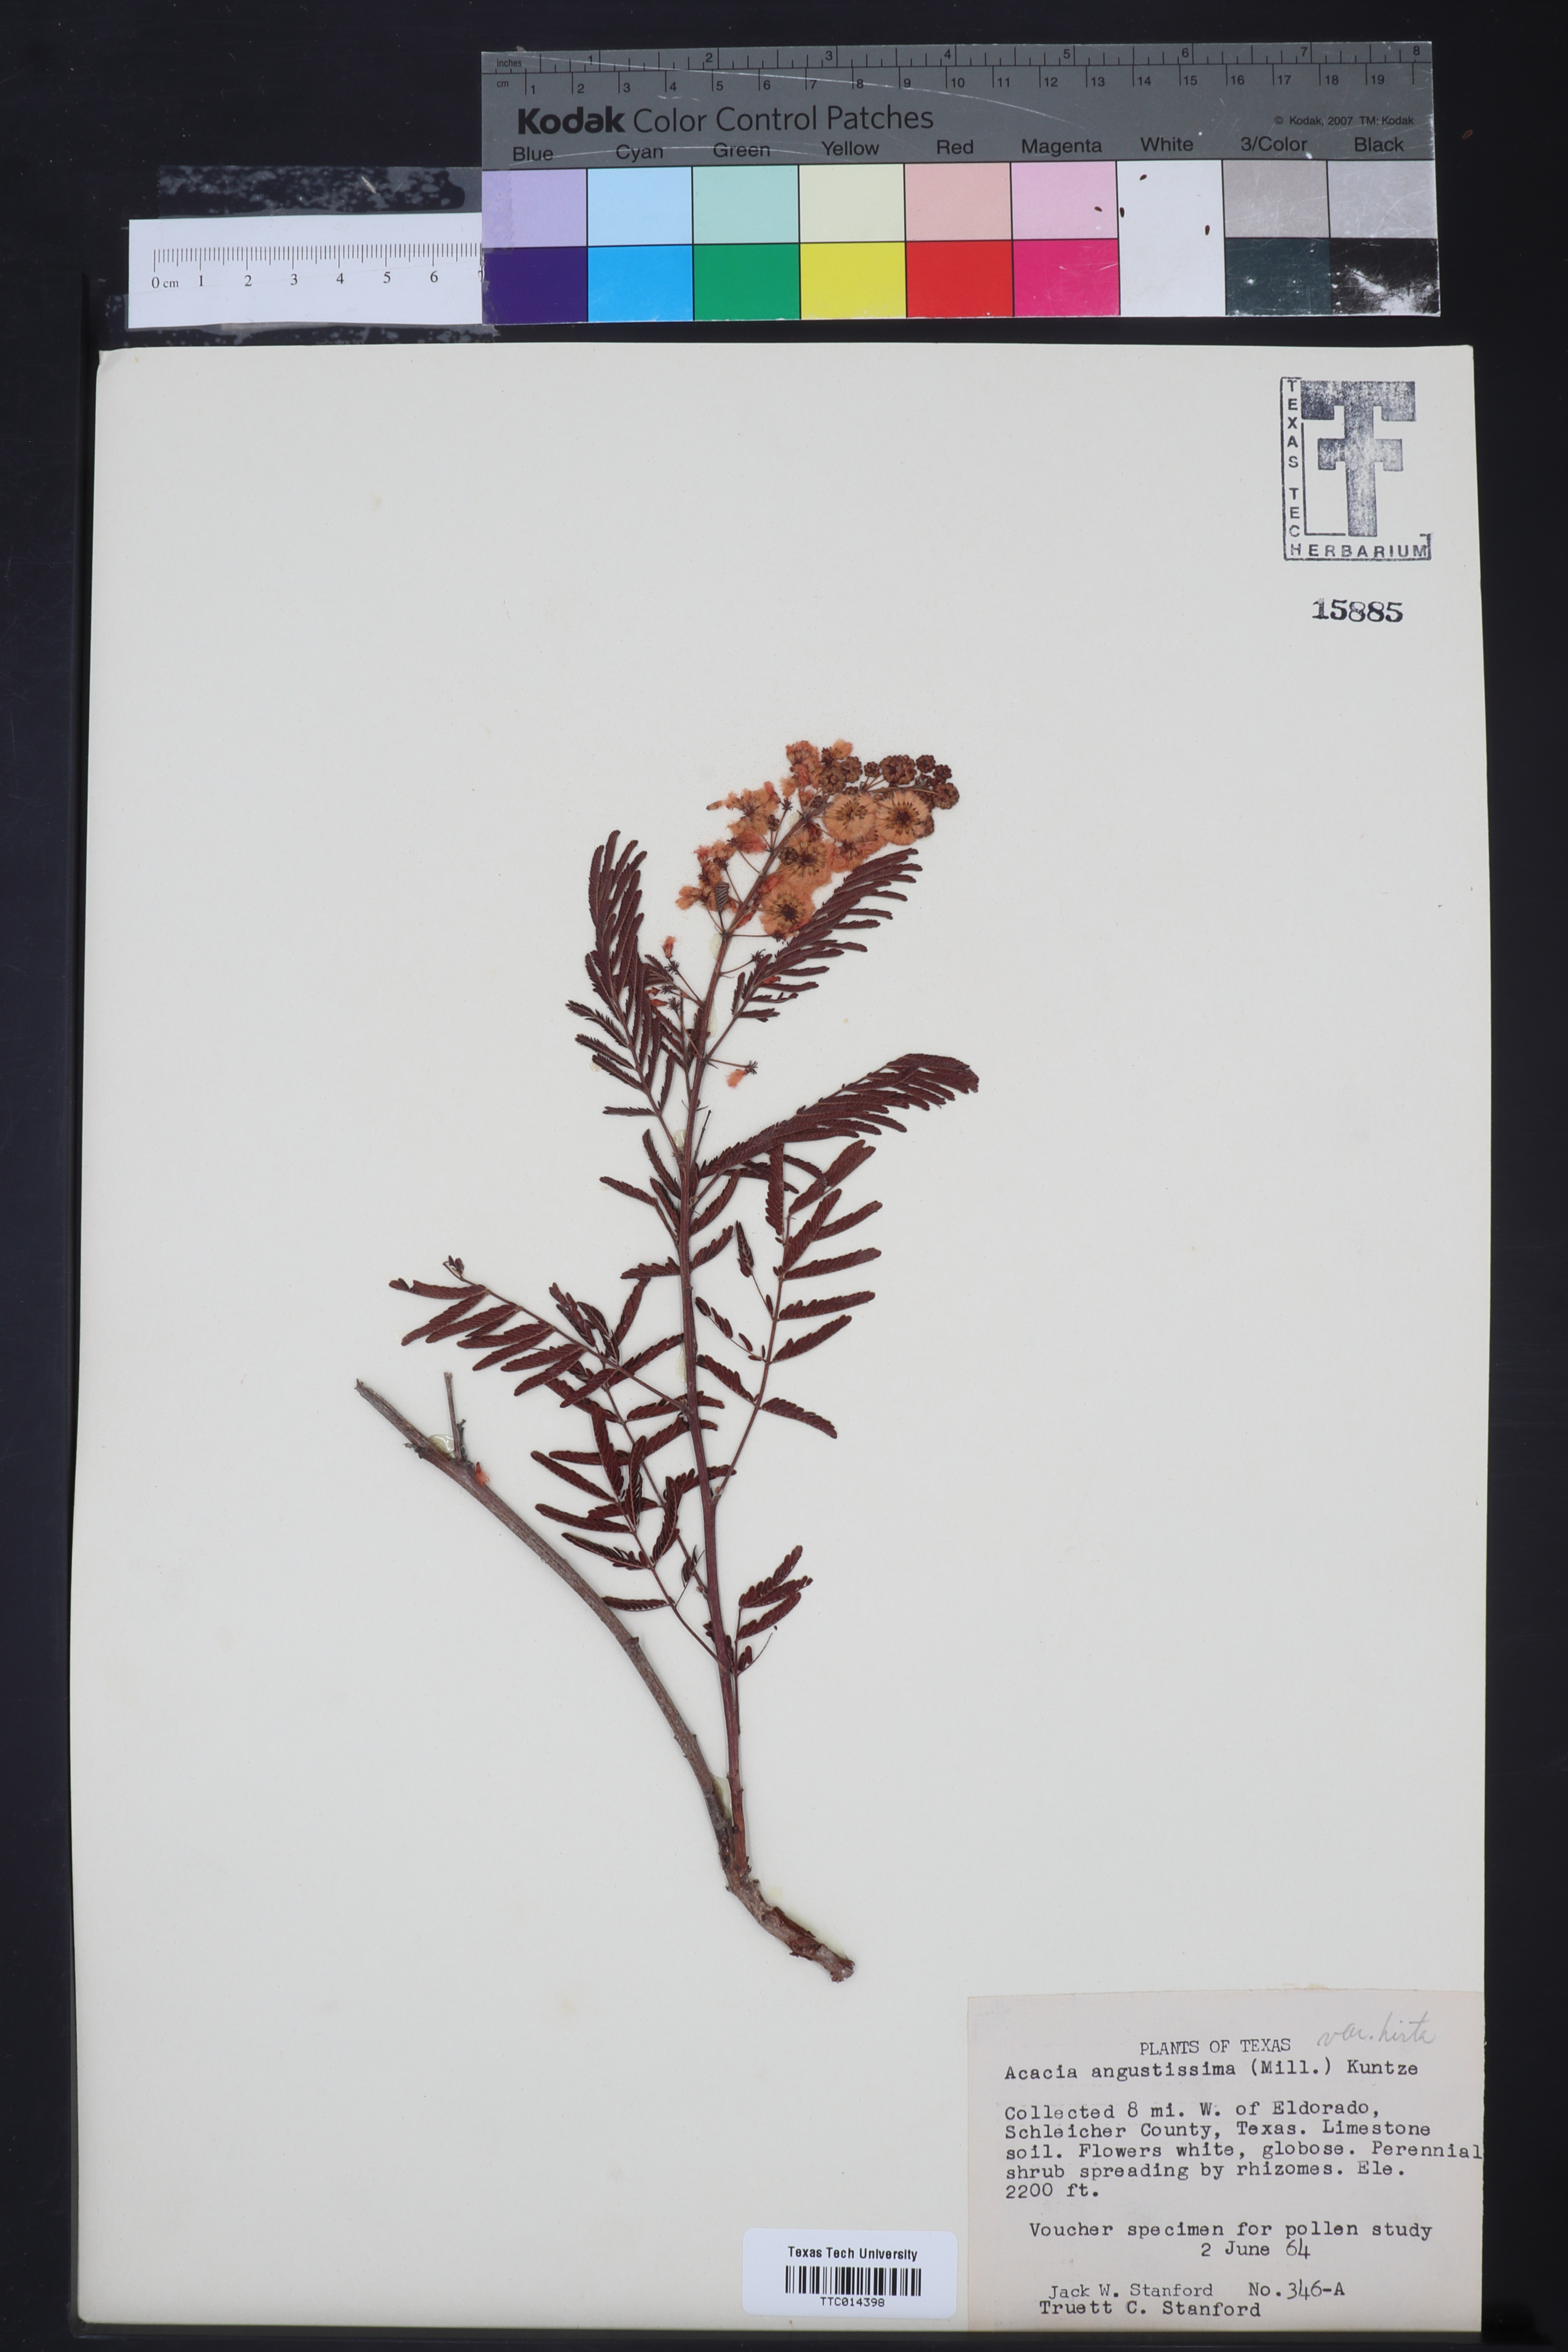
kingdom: Plantae
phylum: Tracheophyta
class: Magnoliopsida
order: Fabales
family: Fabaceae
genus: Acaciella
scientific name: Acaciella angustissima
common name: Prairie acacia
